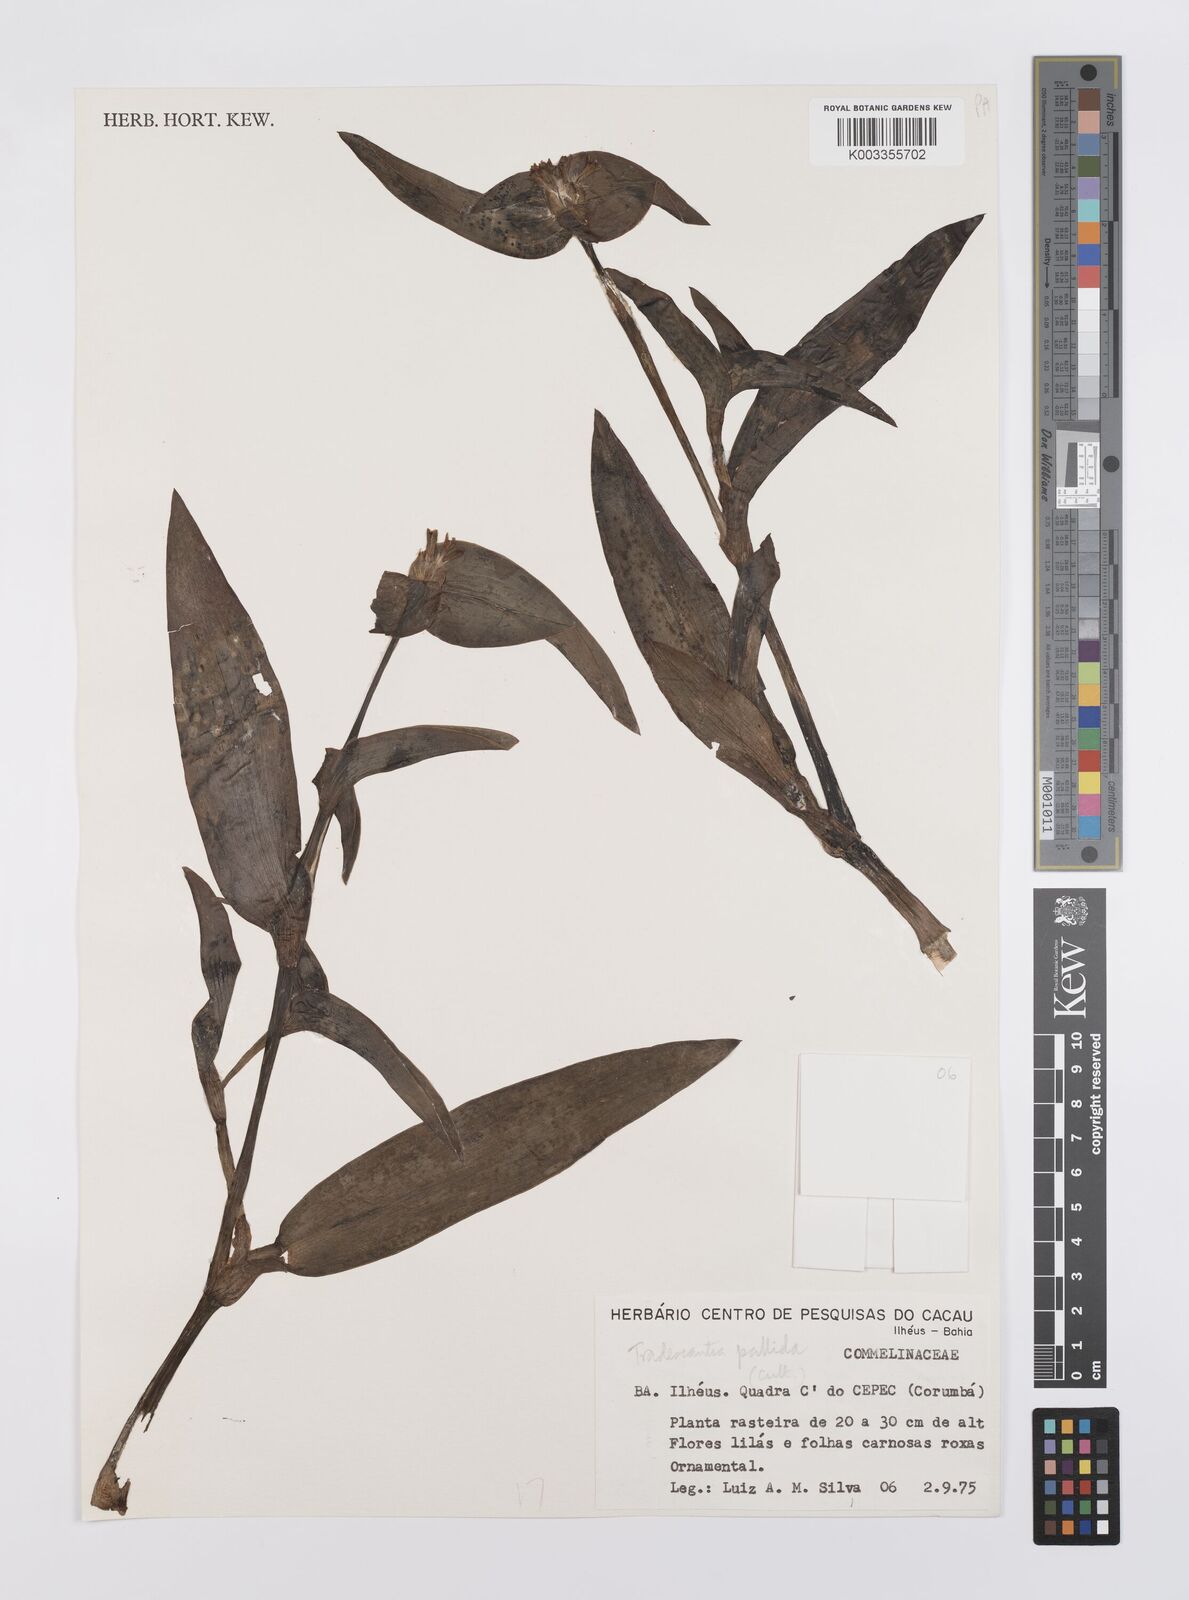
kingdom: Plantae
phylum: Tracheophyta
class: Liliopsida
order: Commelinales
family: Commelinaceae
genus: Tradescantia
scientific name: Tradescantia pallida
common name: Purpleheart
